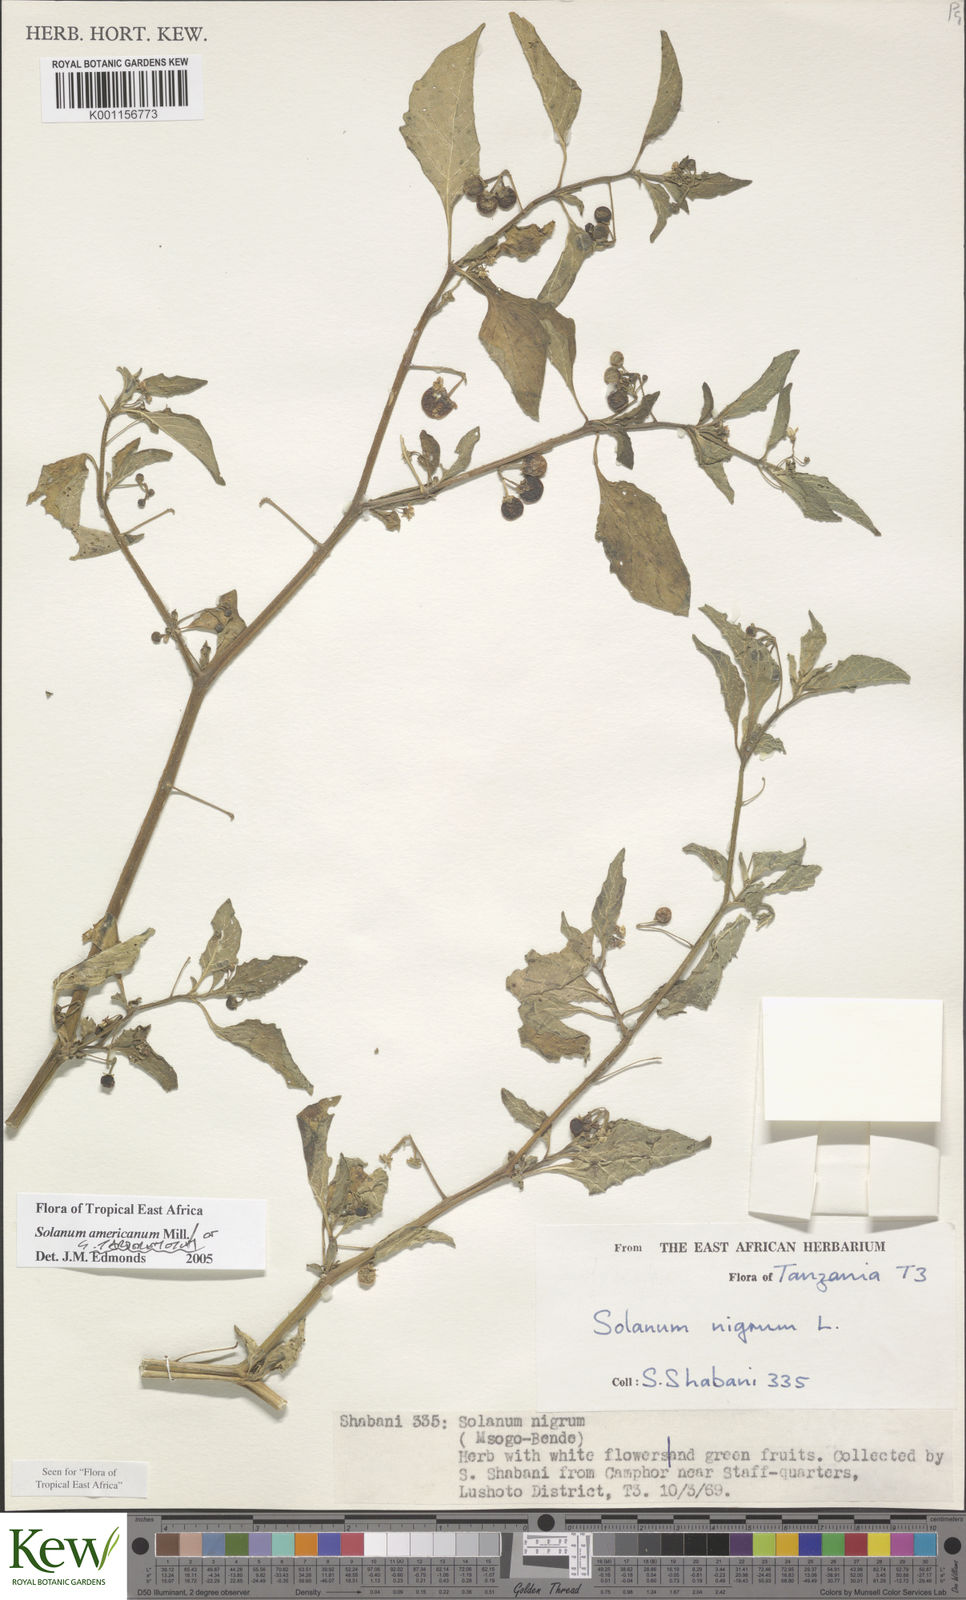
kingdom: Plantae
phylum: Tracheophyta
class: Magnoliopsida
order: Solanales
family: Solanaceae
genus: Solanum
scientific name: Solanum americanum
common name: American black nightshade
